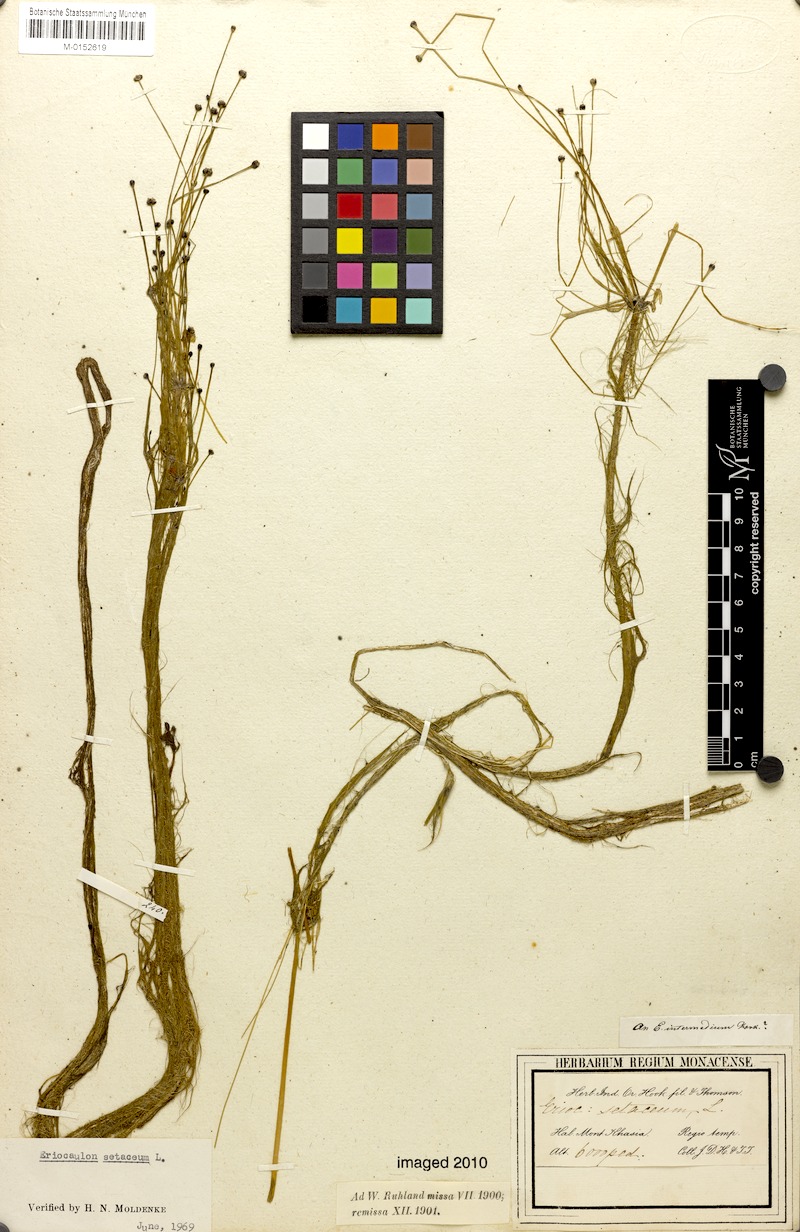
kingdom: Plantae
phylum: Tracheophyta
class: Liliopsida
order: Poales
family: Eriocaulaceae
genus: Eriocaulon
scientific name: Eriocaulon setaceum
